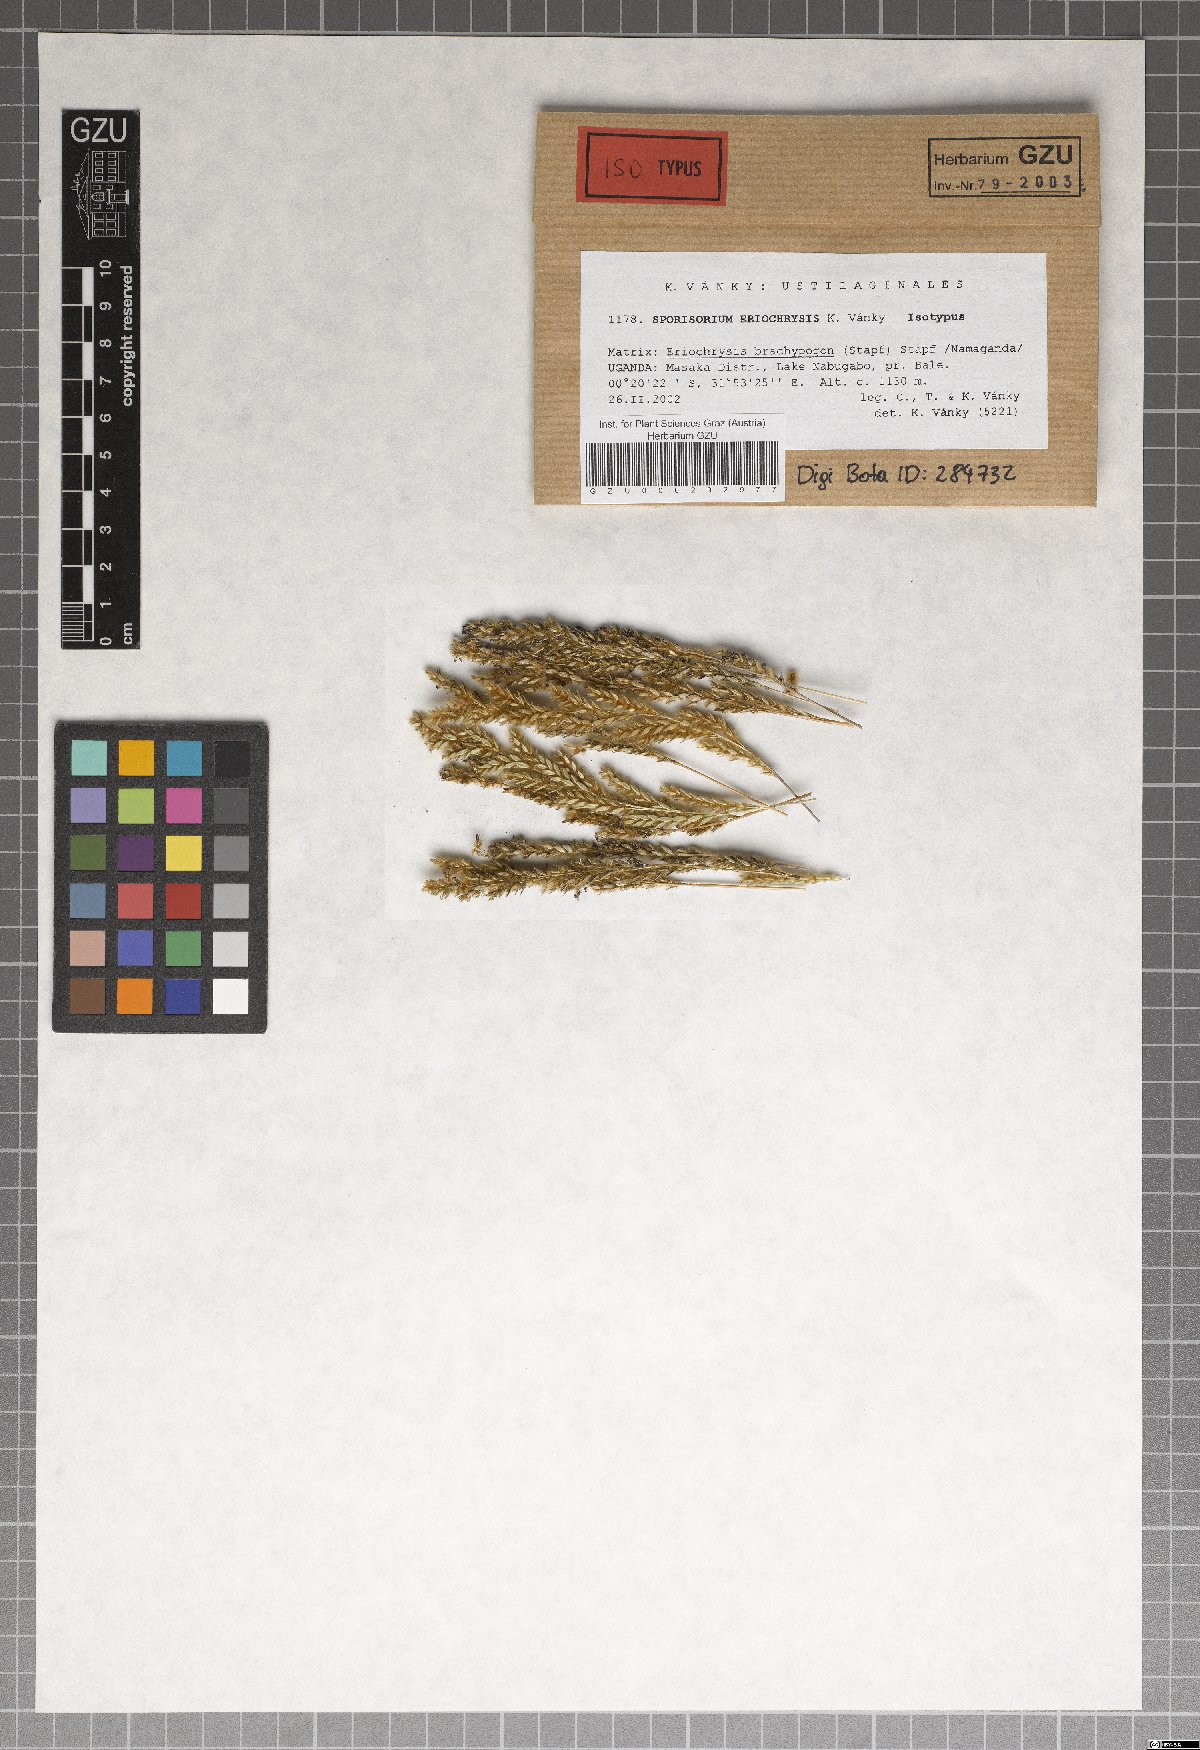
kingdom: Fungi
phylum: Basidiomycota
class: Ustilaginomycetes
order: Ustilaginales
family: Ustilaginaceae
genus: Sporisorium
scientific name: Sporisorium eriochrysis
